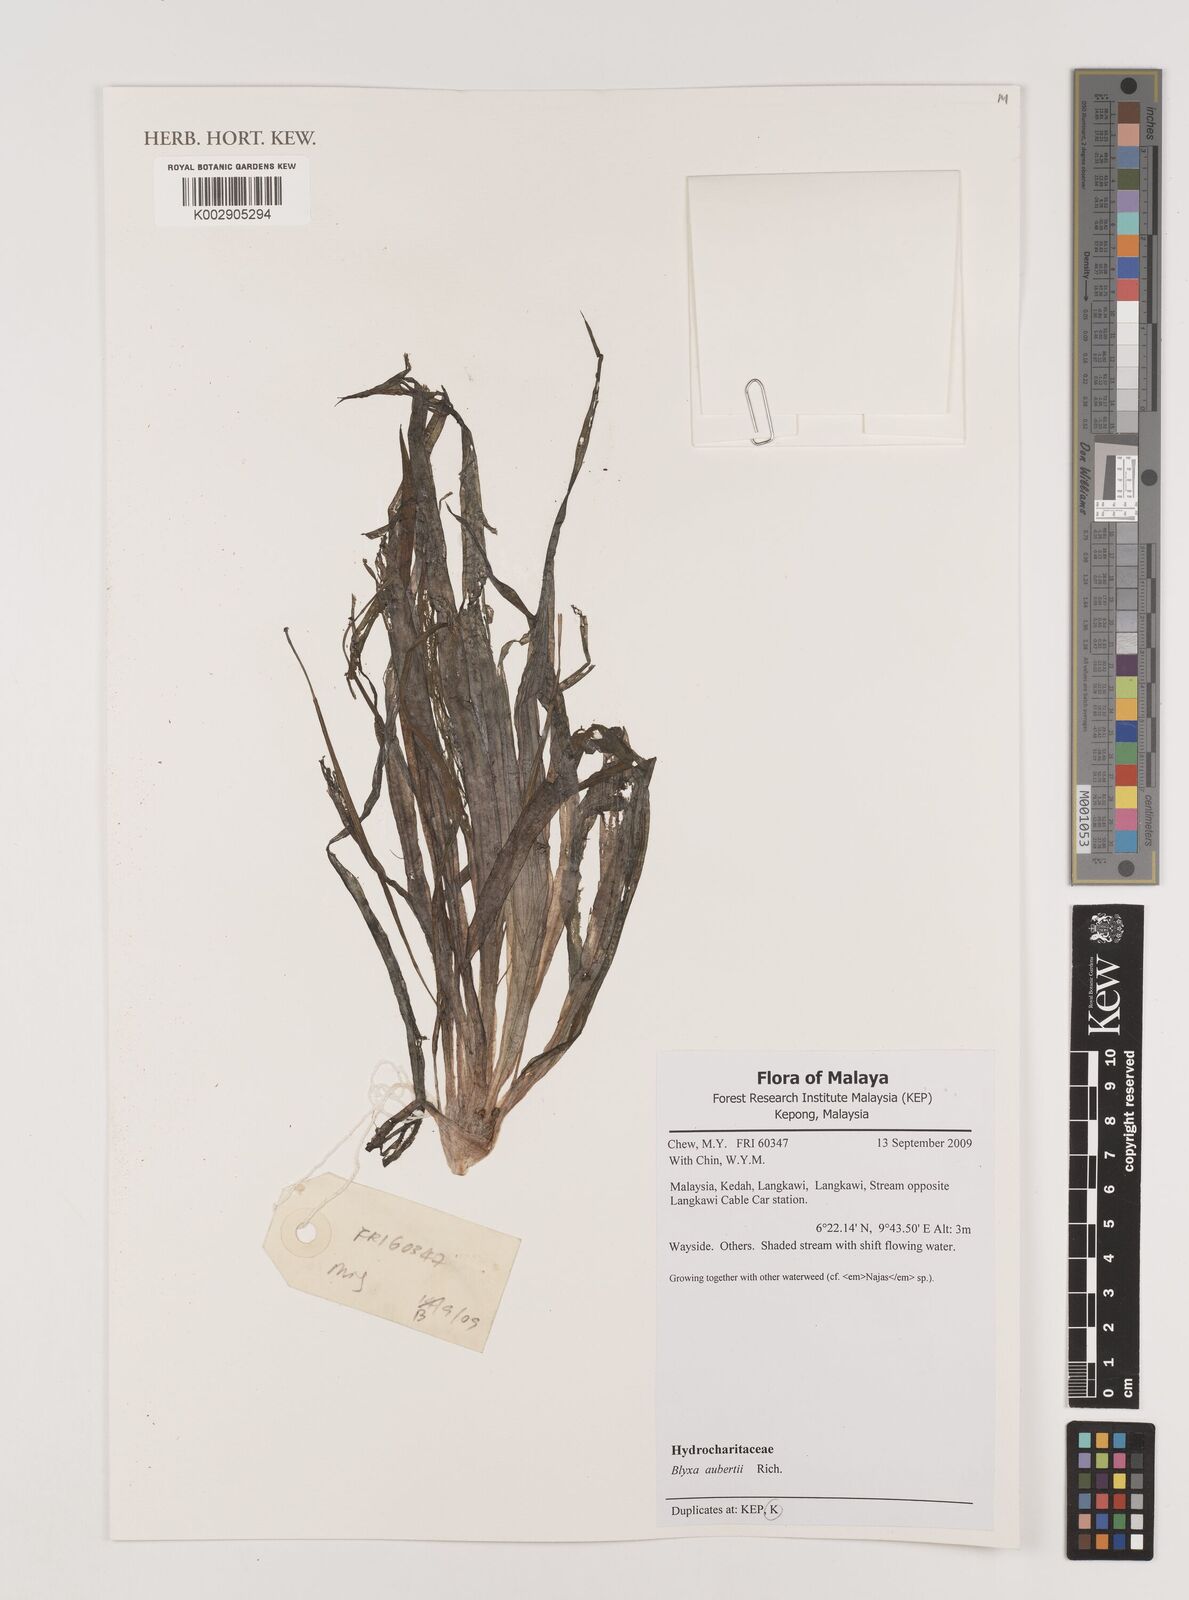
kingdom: Plantae
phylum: Tracheophyta
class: Liliopsida
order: Alismatales
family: Hydrocharitaceae
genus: Blyxa
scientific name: Blyxa aubertii
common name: Roundfruit blyxa
